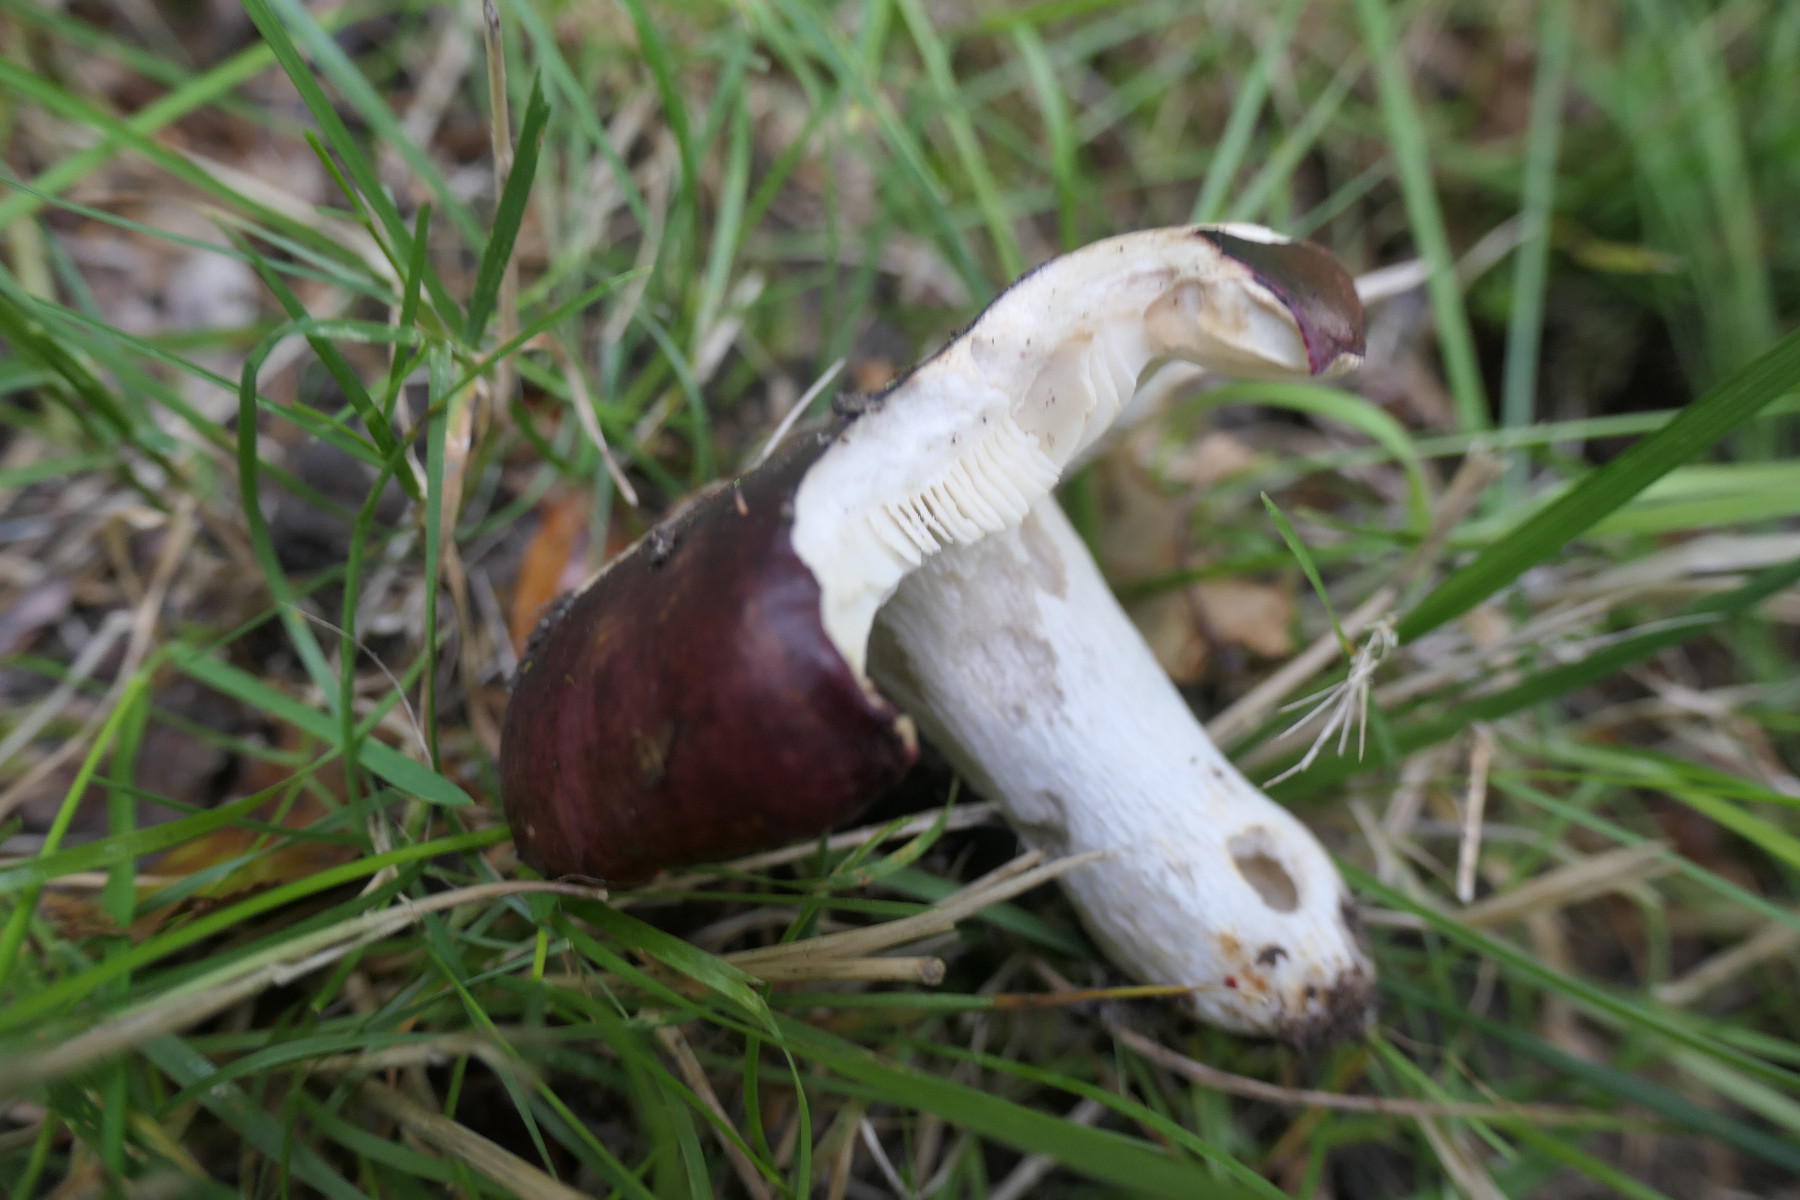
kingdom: Fungi
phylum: Basidiomycota
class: Agaricomycetes
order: Russulales
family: Russulaceae
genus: Russula
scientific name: Russula atropurpurea
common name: purpurbroget skørhat
